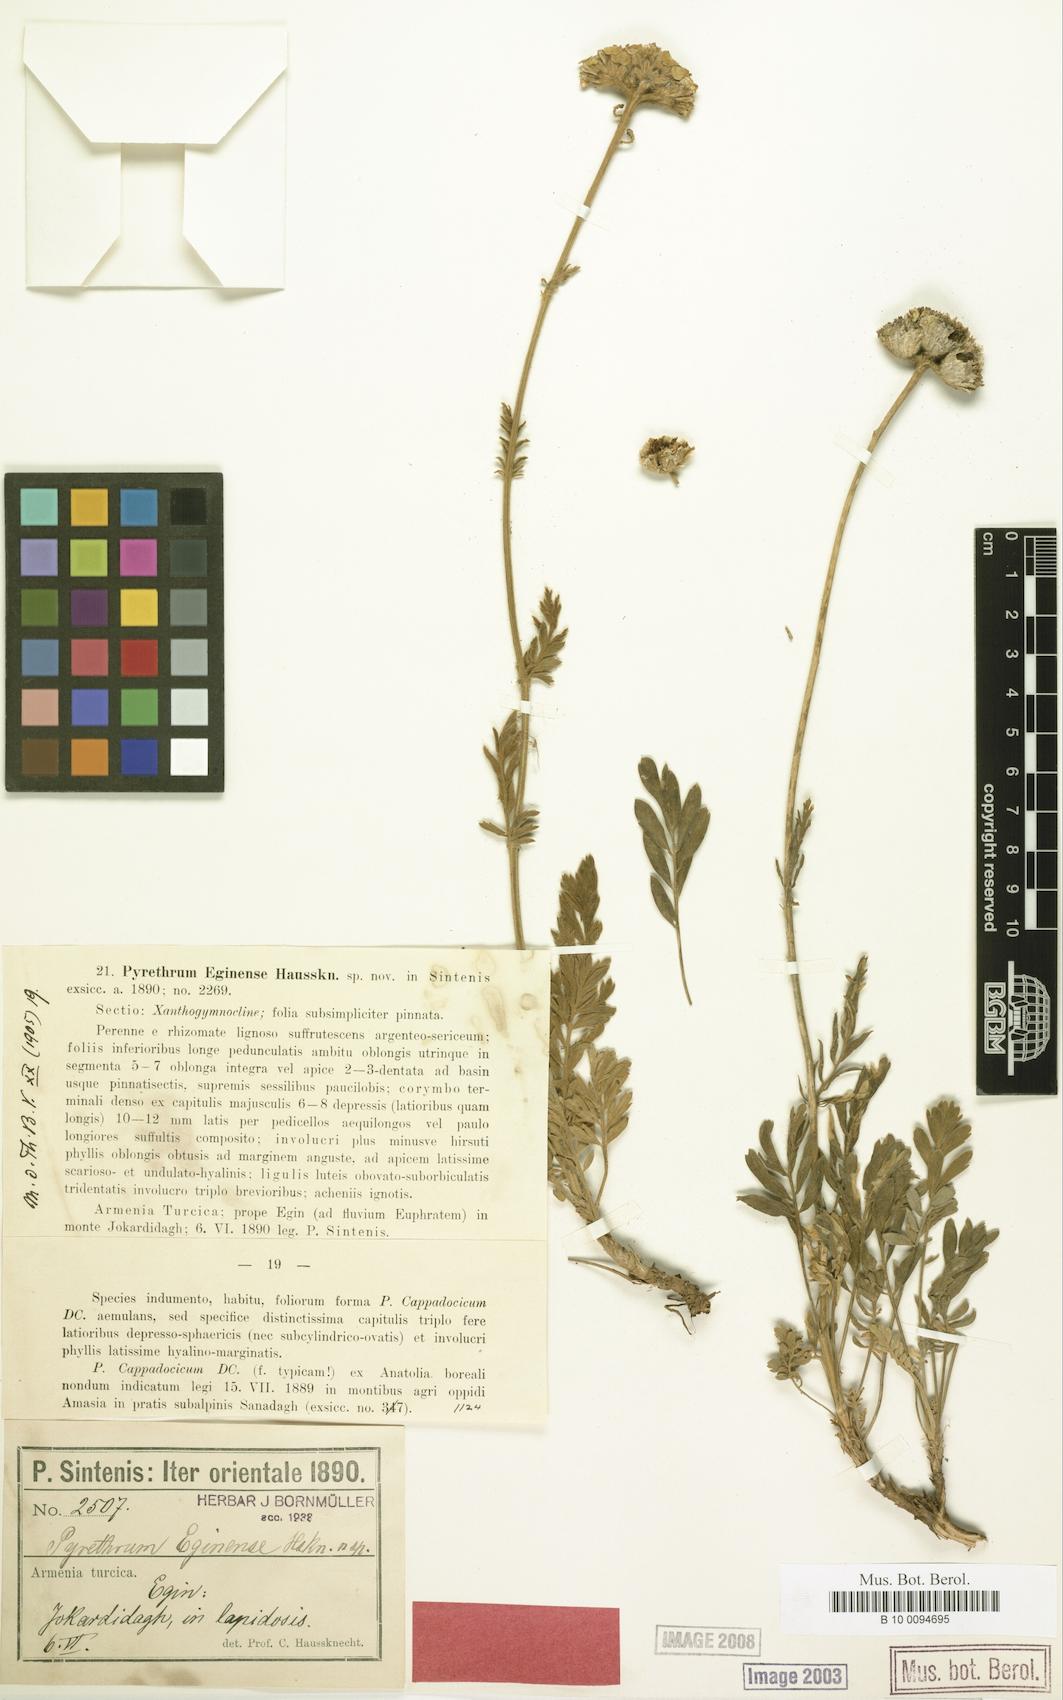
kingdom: Plantae
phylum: Tracheophyta
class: Magnoliopsida
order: Asterales
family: Asteraceae
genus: Tanacetum
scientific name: Tanacetum eginense
